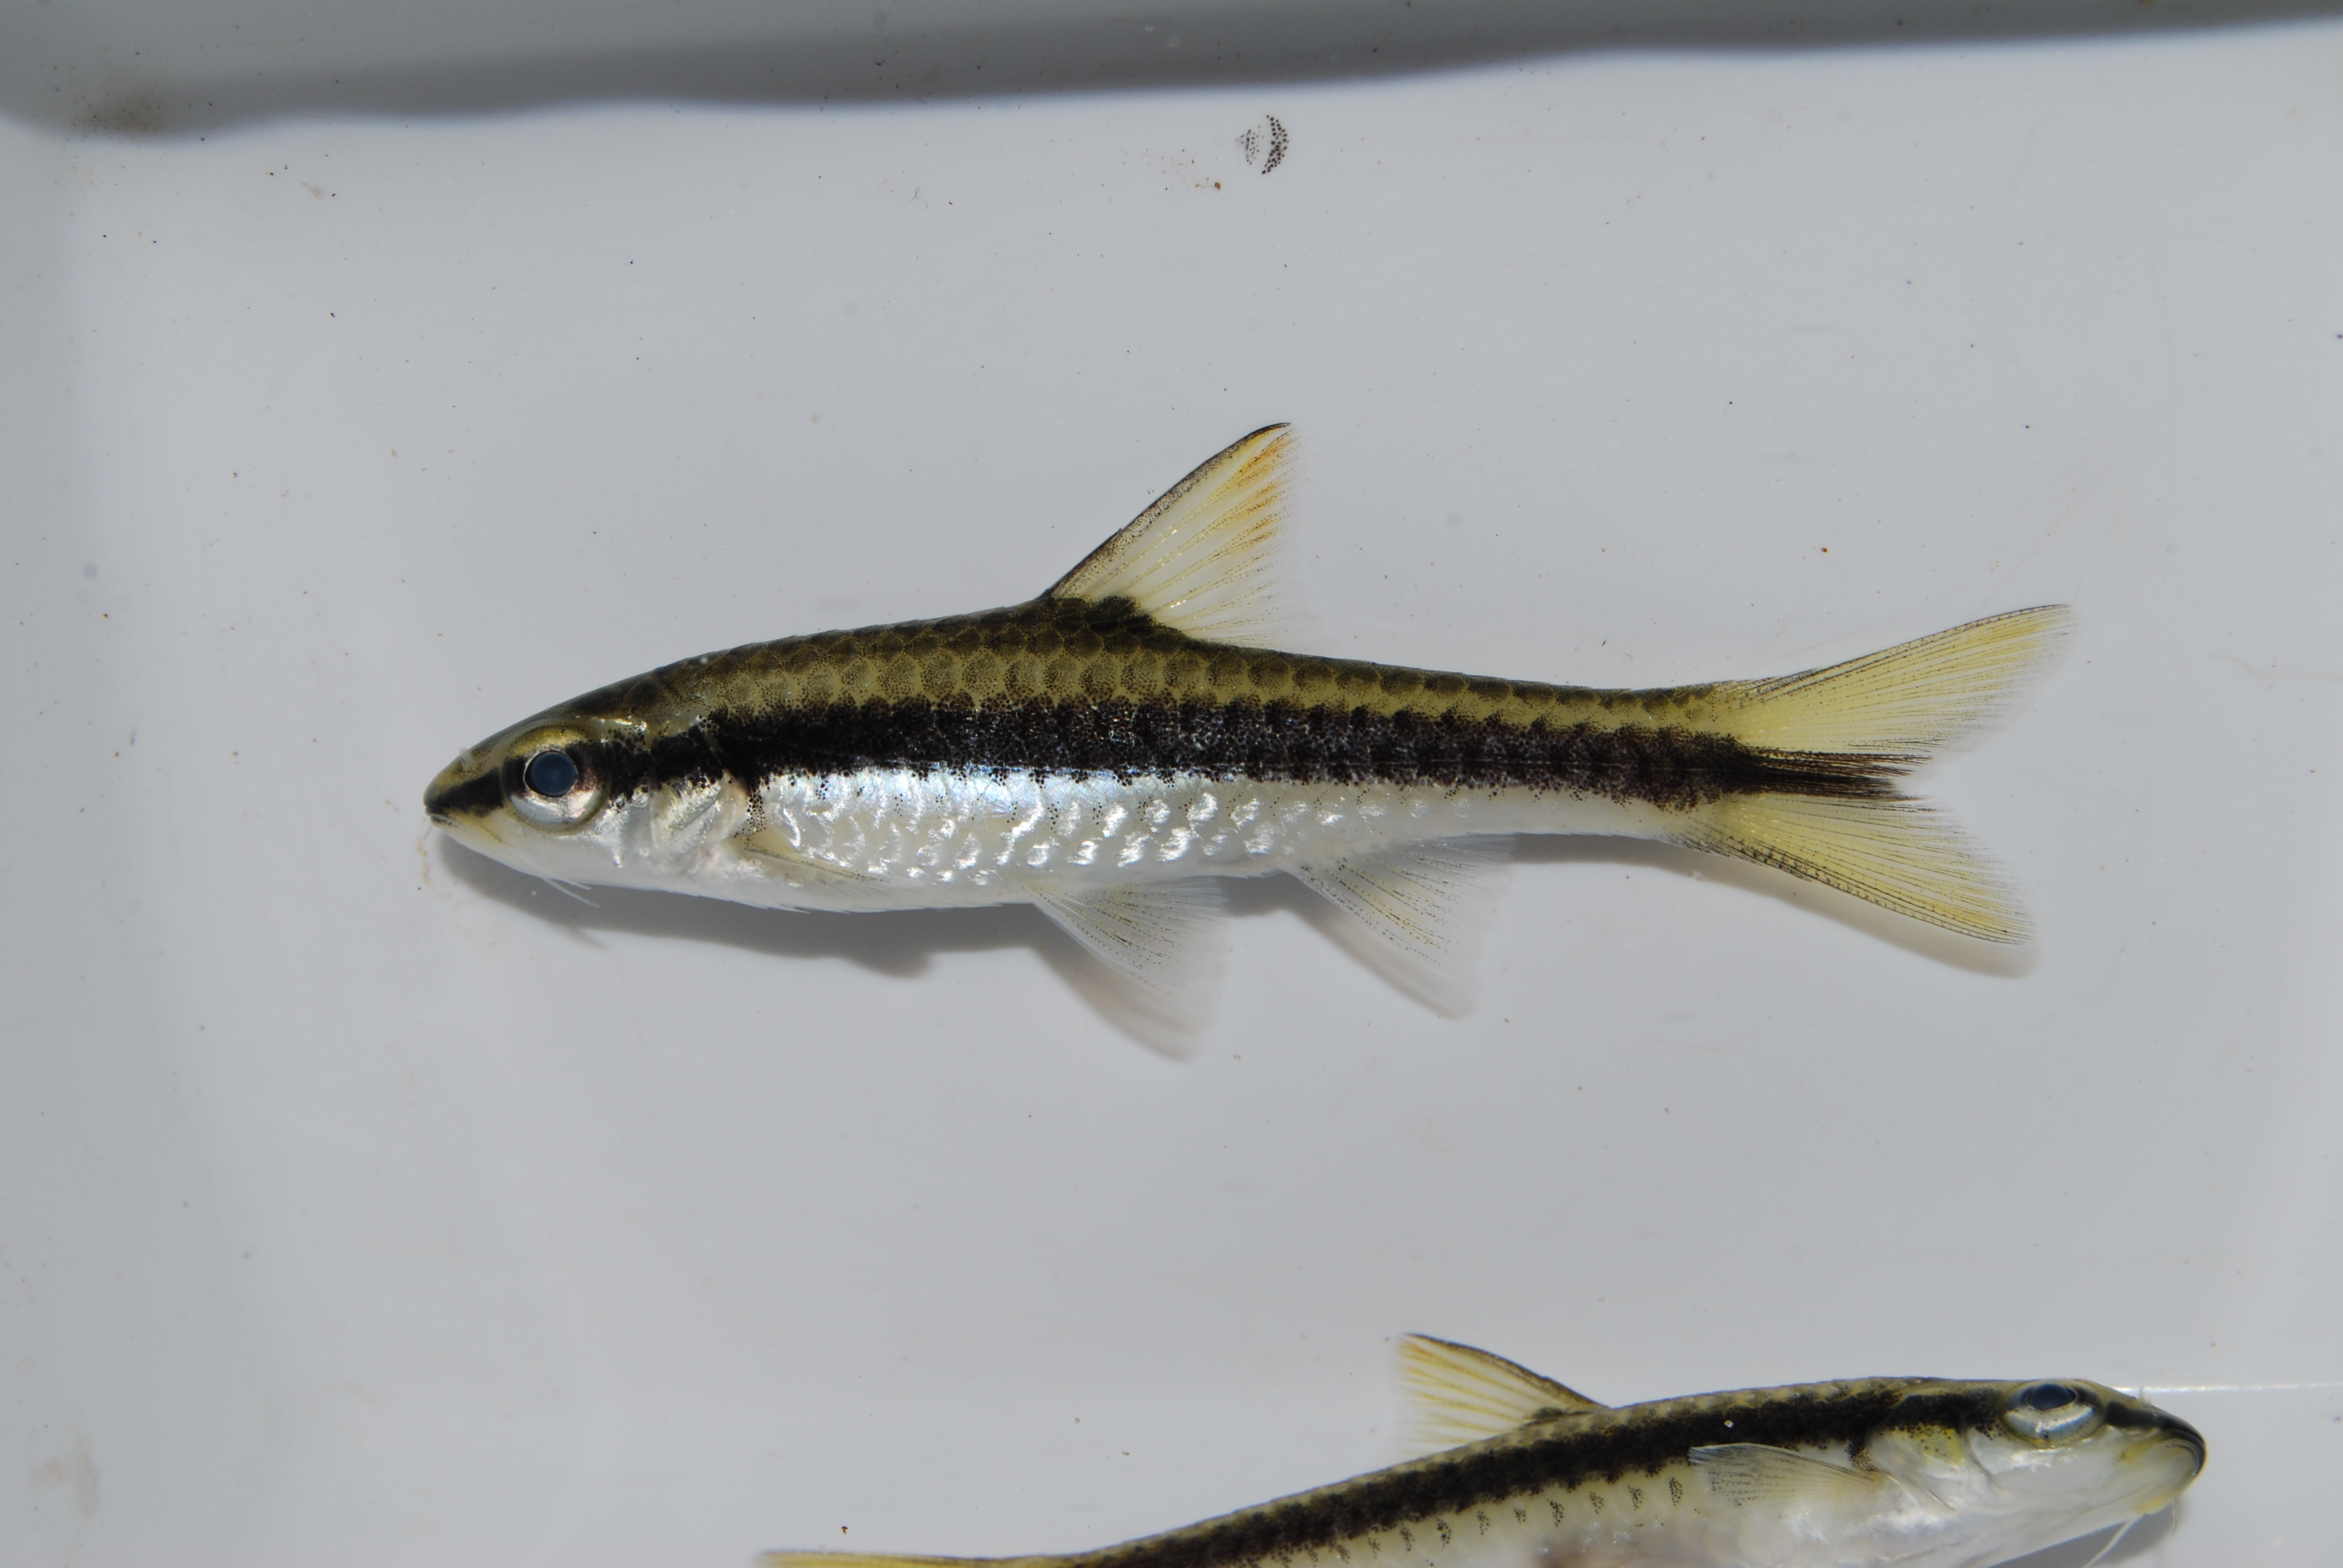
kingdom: Animalia
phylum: Chordata
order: Cypriniformes
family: Cyprinidae
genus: Enteromius
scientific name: Enteromius eutaenia
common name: Orangefin barb
